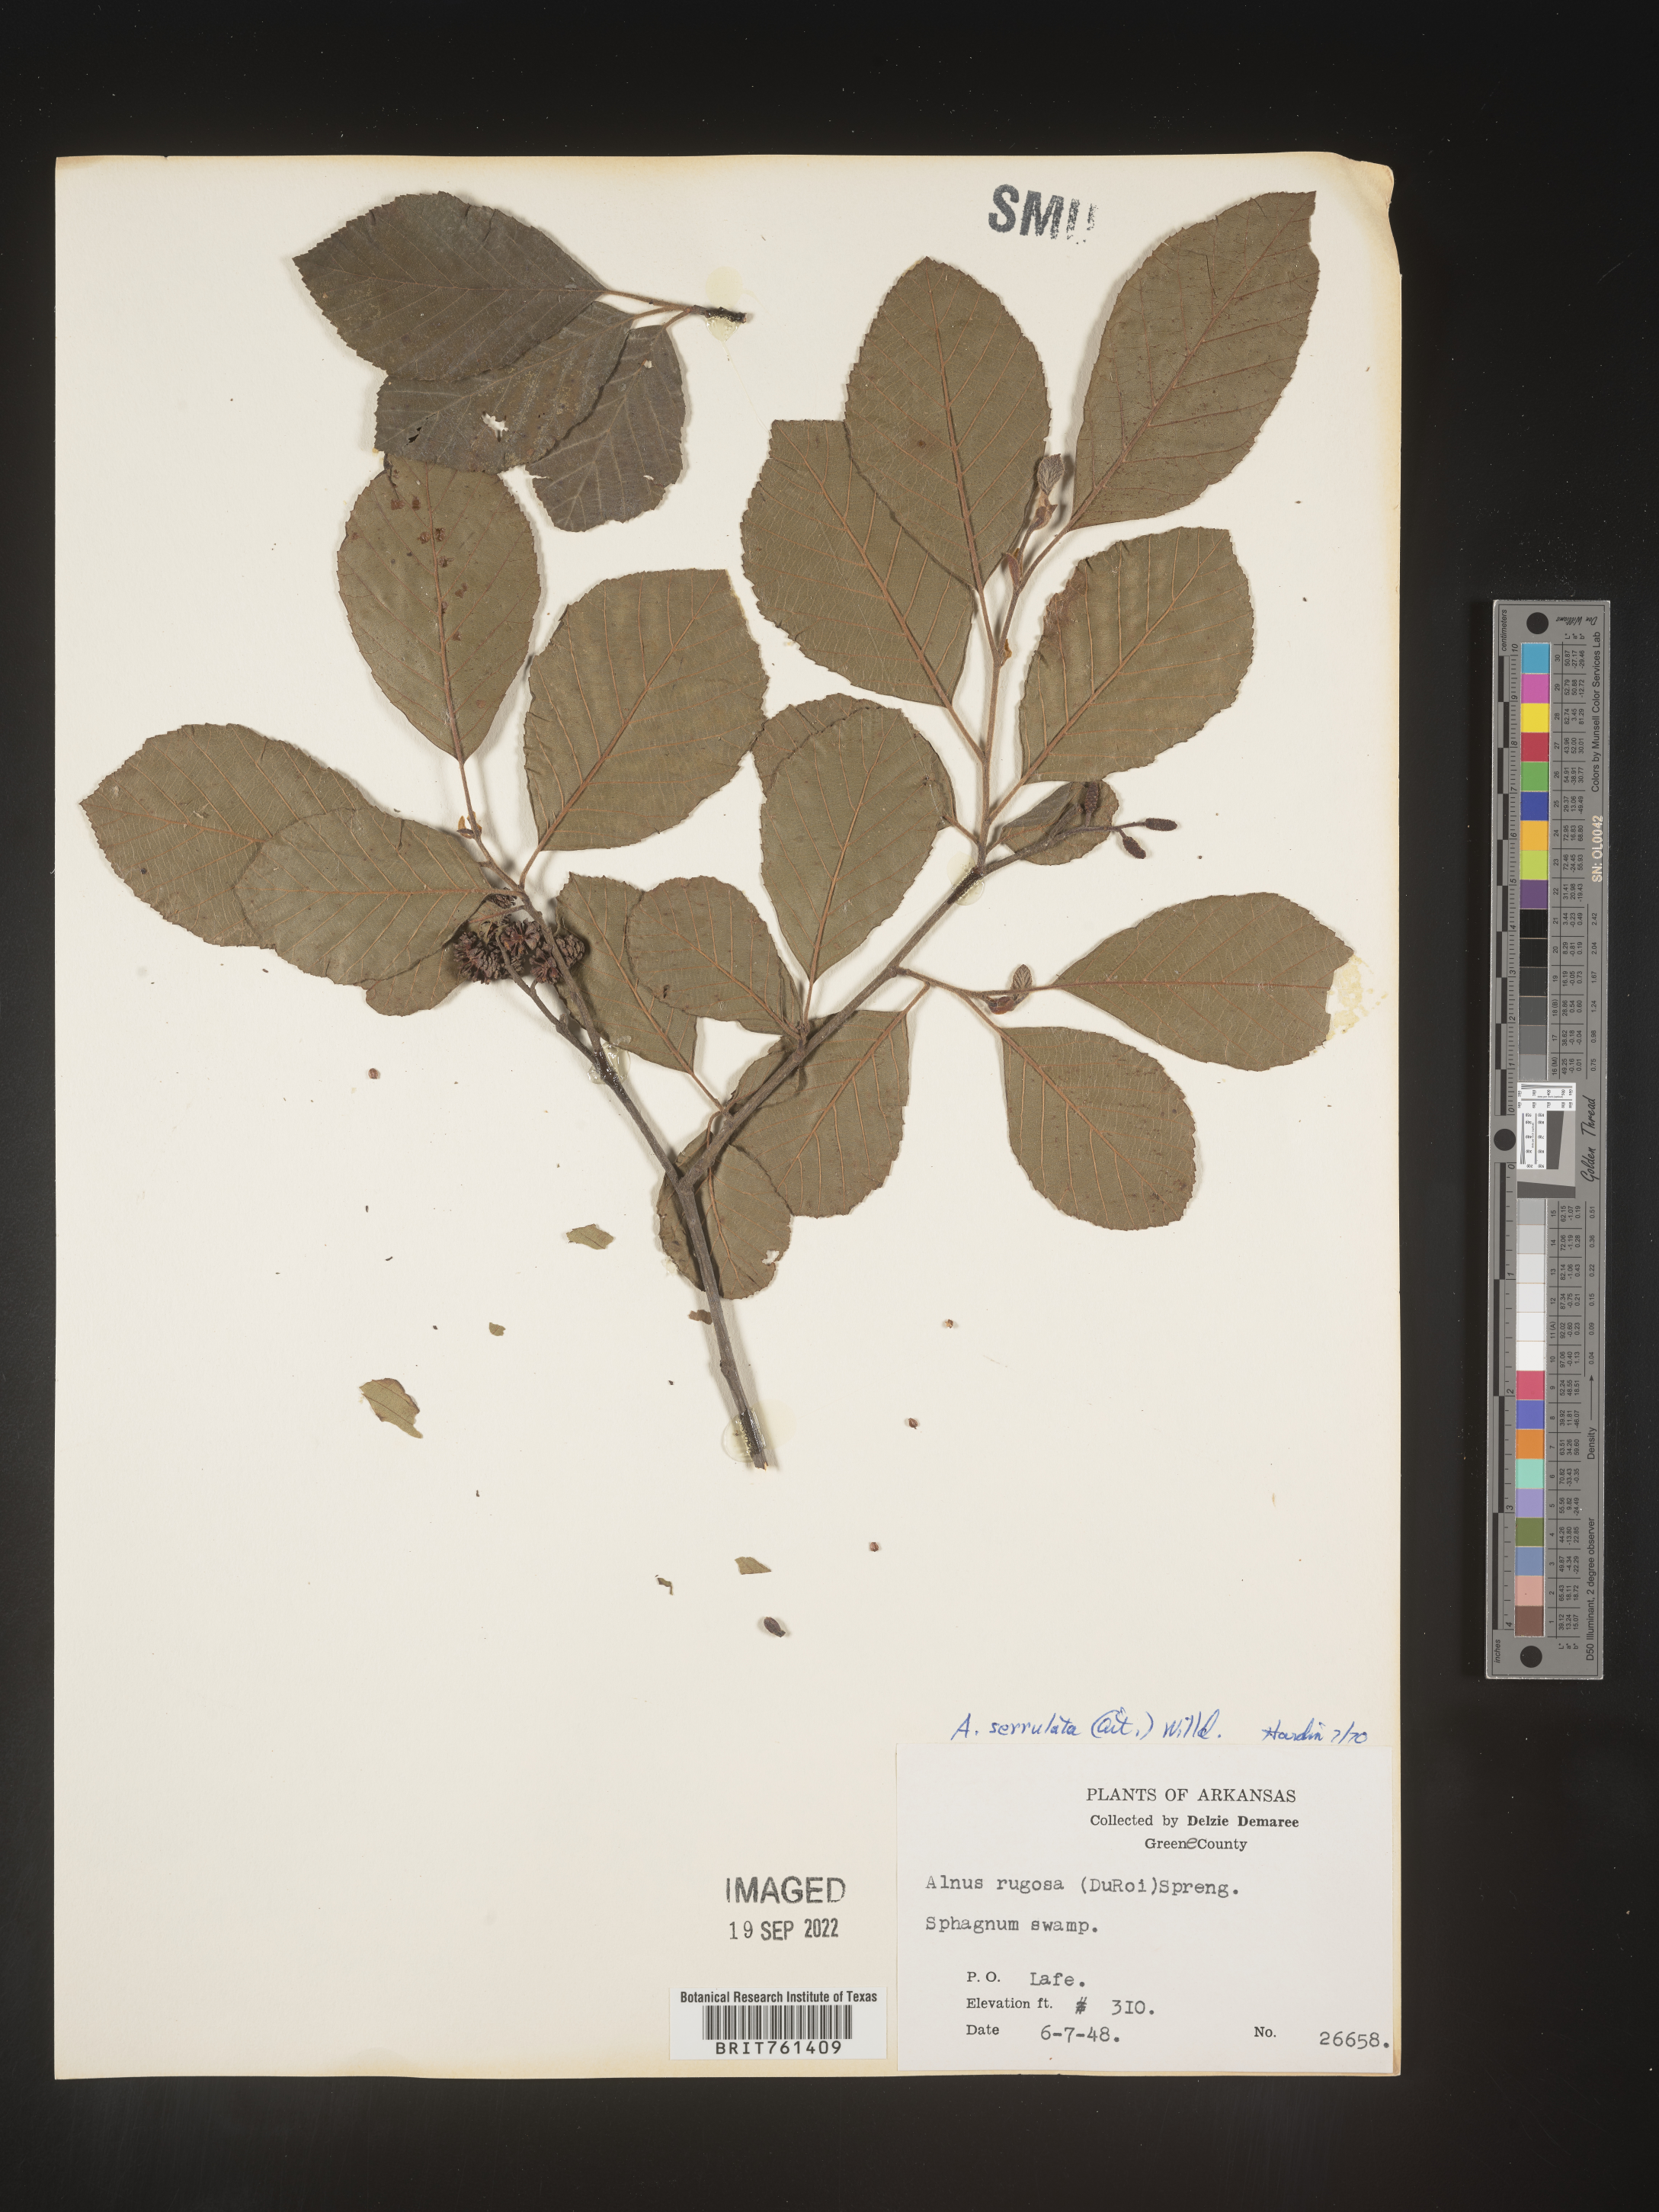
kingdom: Plantae
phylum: Tracheophyta
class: Magnoliopsida
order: Fagales
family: Betulaceae
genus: Alnus
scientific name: Alnus serrulata
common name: Hazel alder
